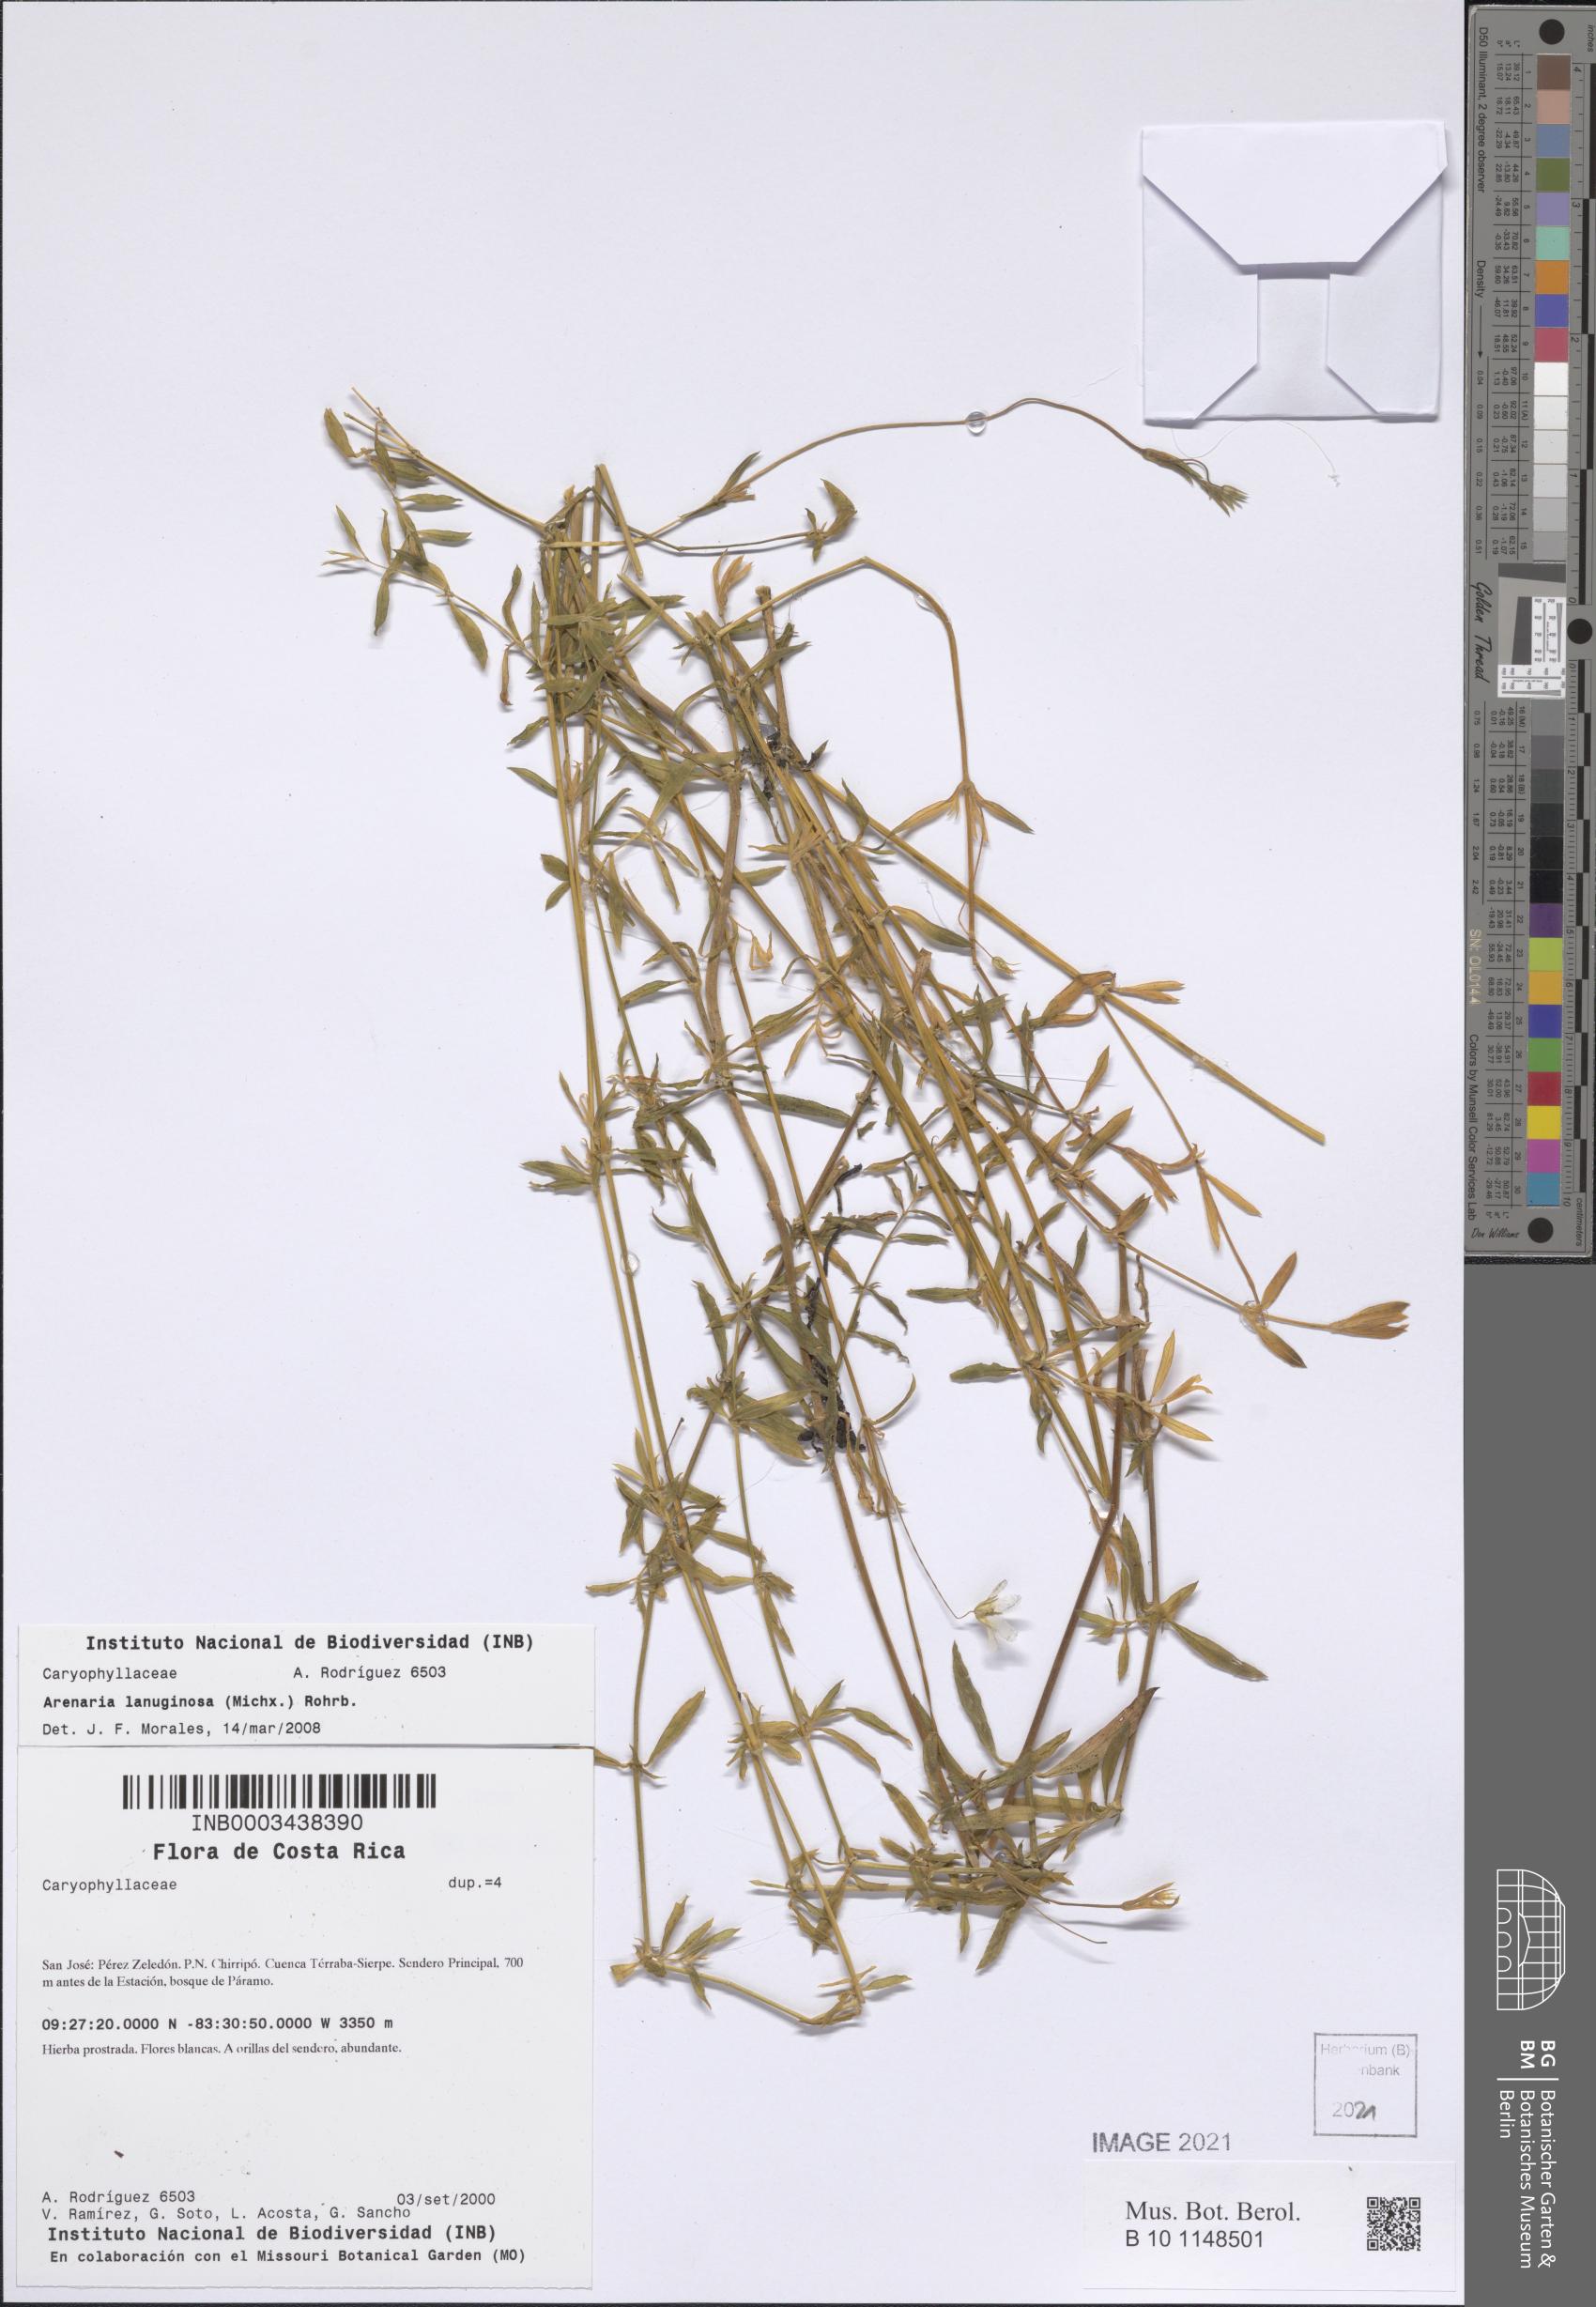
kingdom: Plantae
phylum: Tracheophyta
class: Magnoliopsida
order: Caryophyllales
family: Caryophyllaceae
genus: Arenaria
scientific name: Arenaria lanuginosa
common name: Spread sandwort
